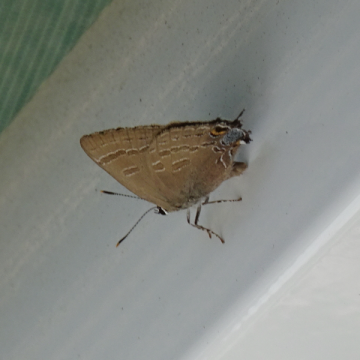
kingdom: Animalia
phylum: Arthropoda
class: Insecta
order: Lepidoptera
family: Lycaenidae
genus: Satyrium
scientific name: Satyrium calanus
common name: Banded Hairstreak
